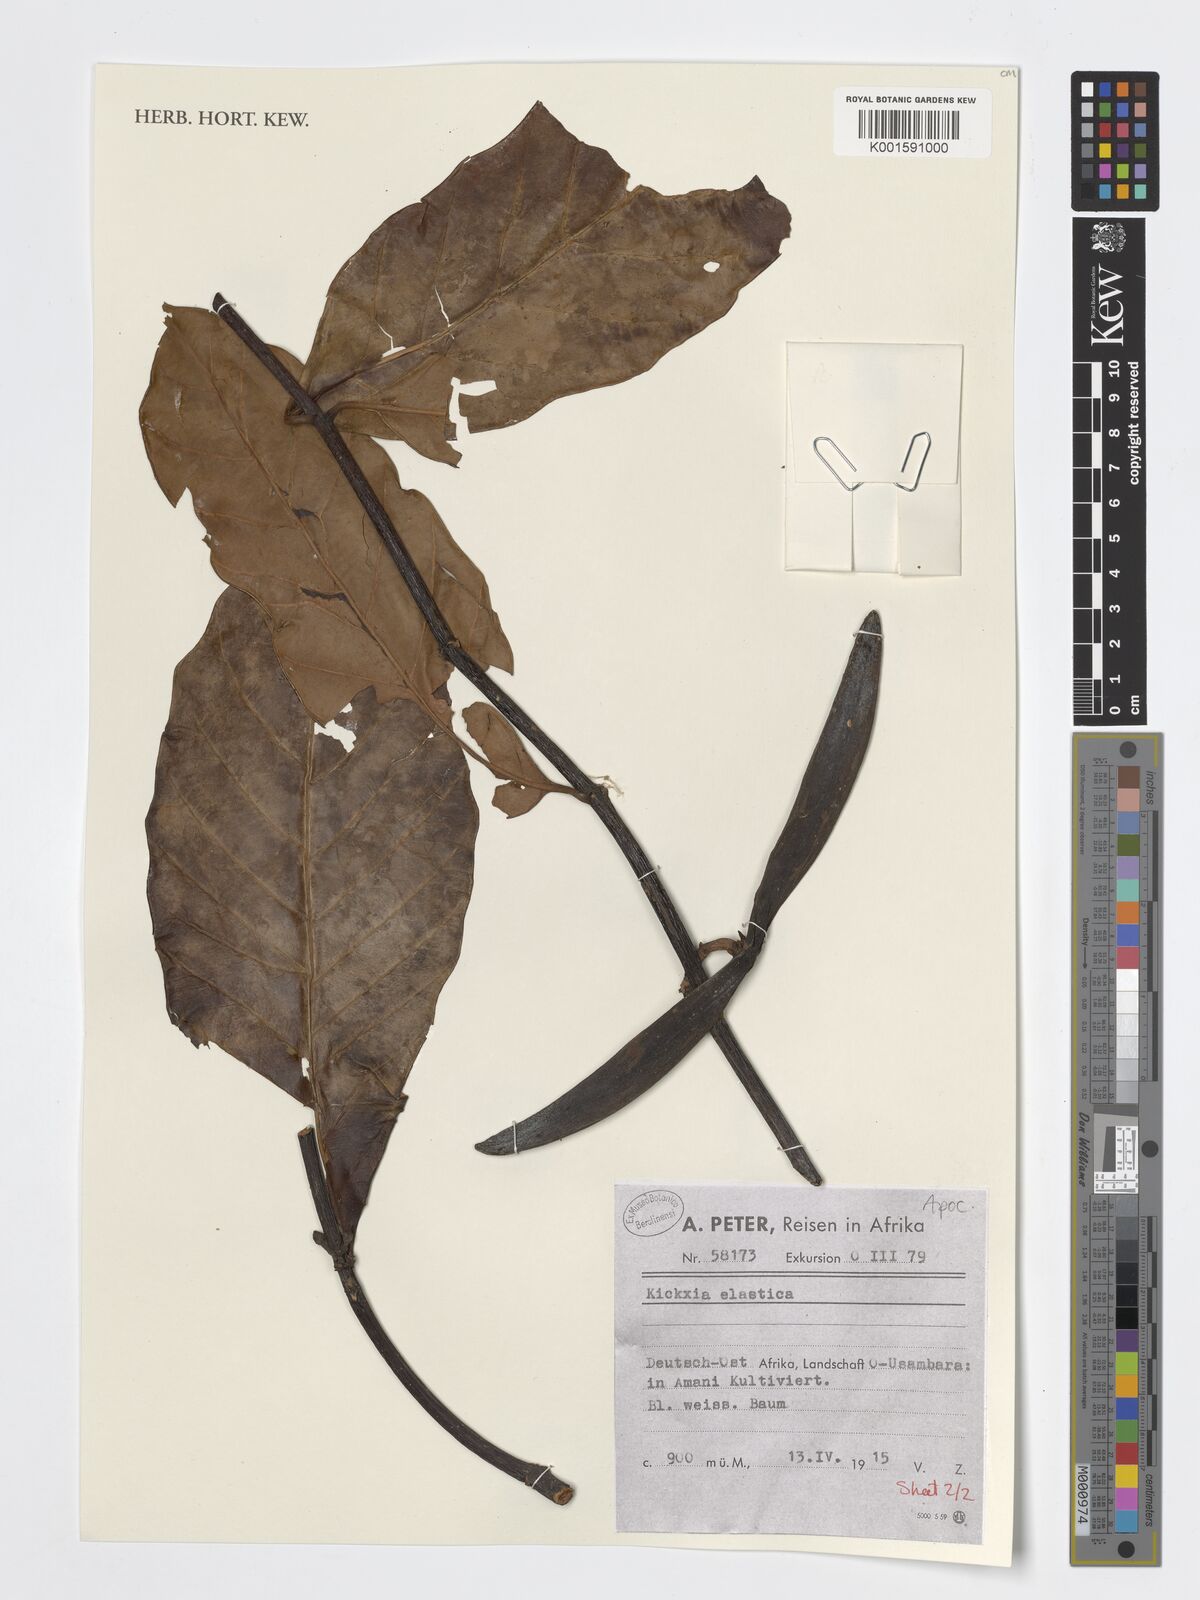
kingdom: Plantae
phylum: Tracheophyta
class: Magnoliopsida
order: Gentianales
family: Apocynaceae
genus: Funtumia
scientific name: Funtumia elastica
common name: Silkrubber
